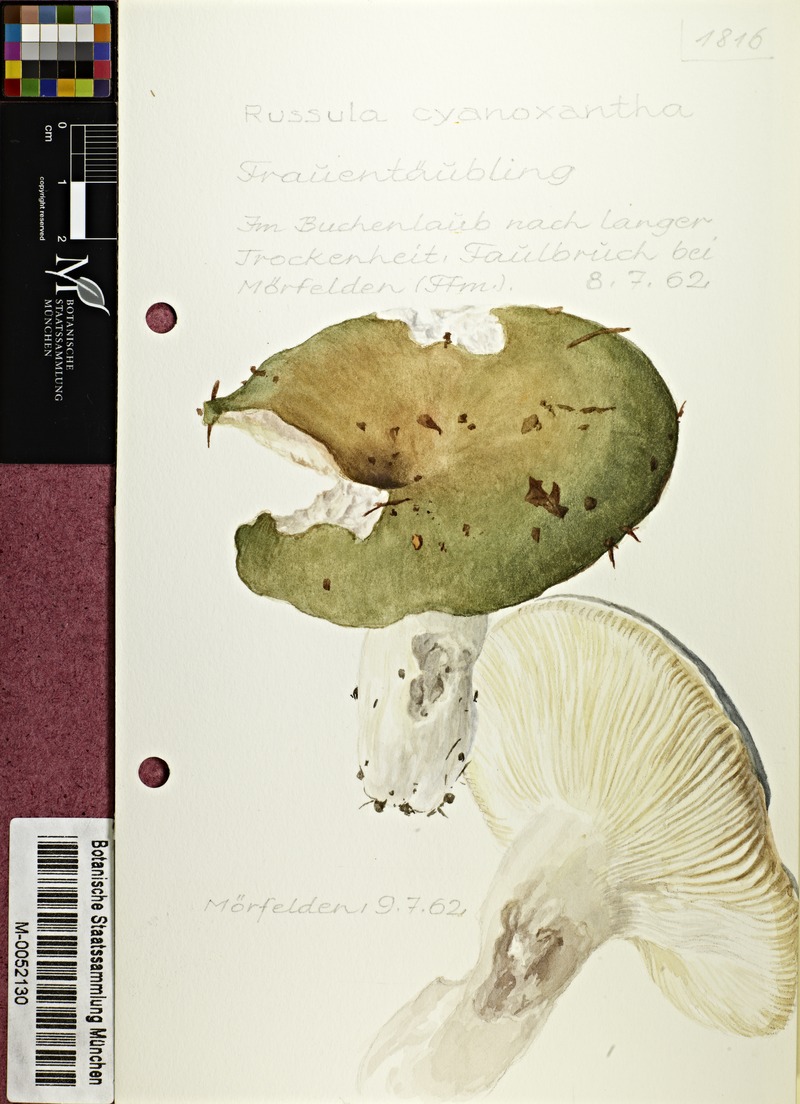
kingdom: Fungi
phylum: Basidiomycota
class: Agaricomycetes
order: Russulales
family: Russulaceae
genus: Russula
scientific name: Russula cyanoxantha
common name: Charcoal burner
